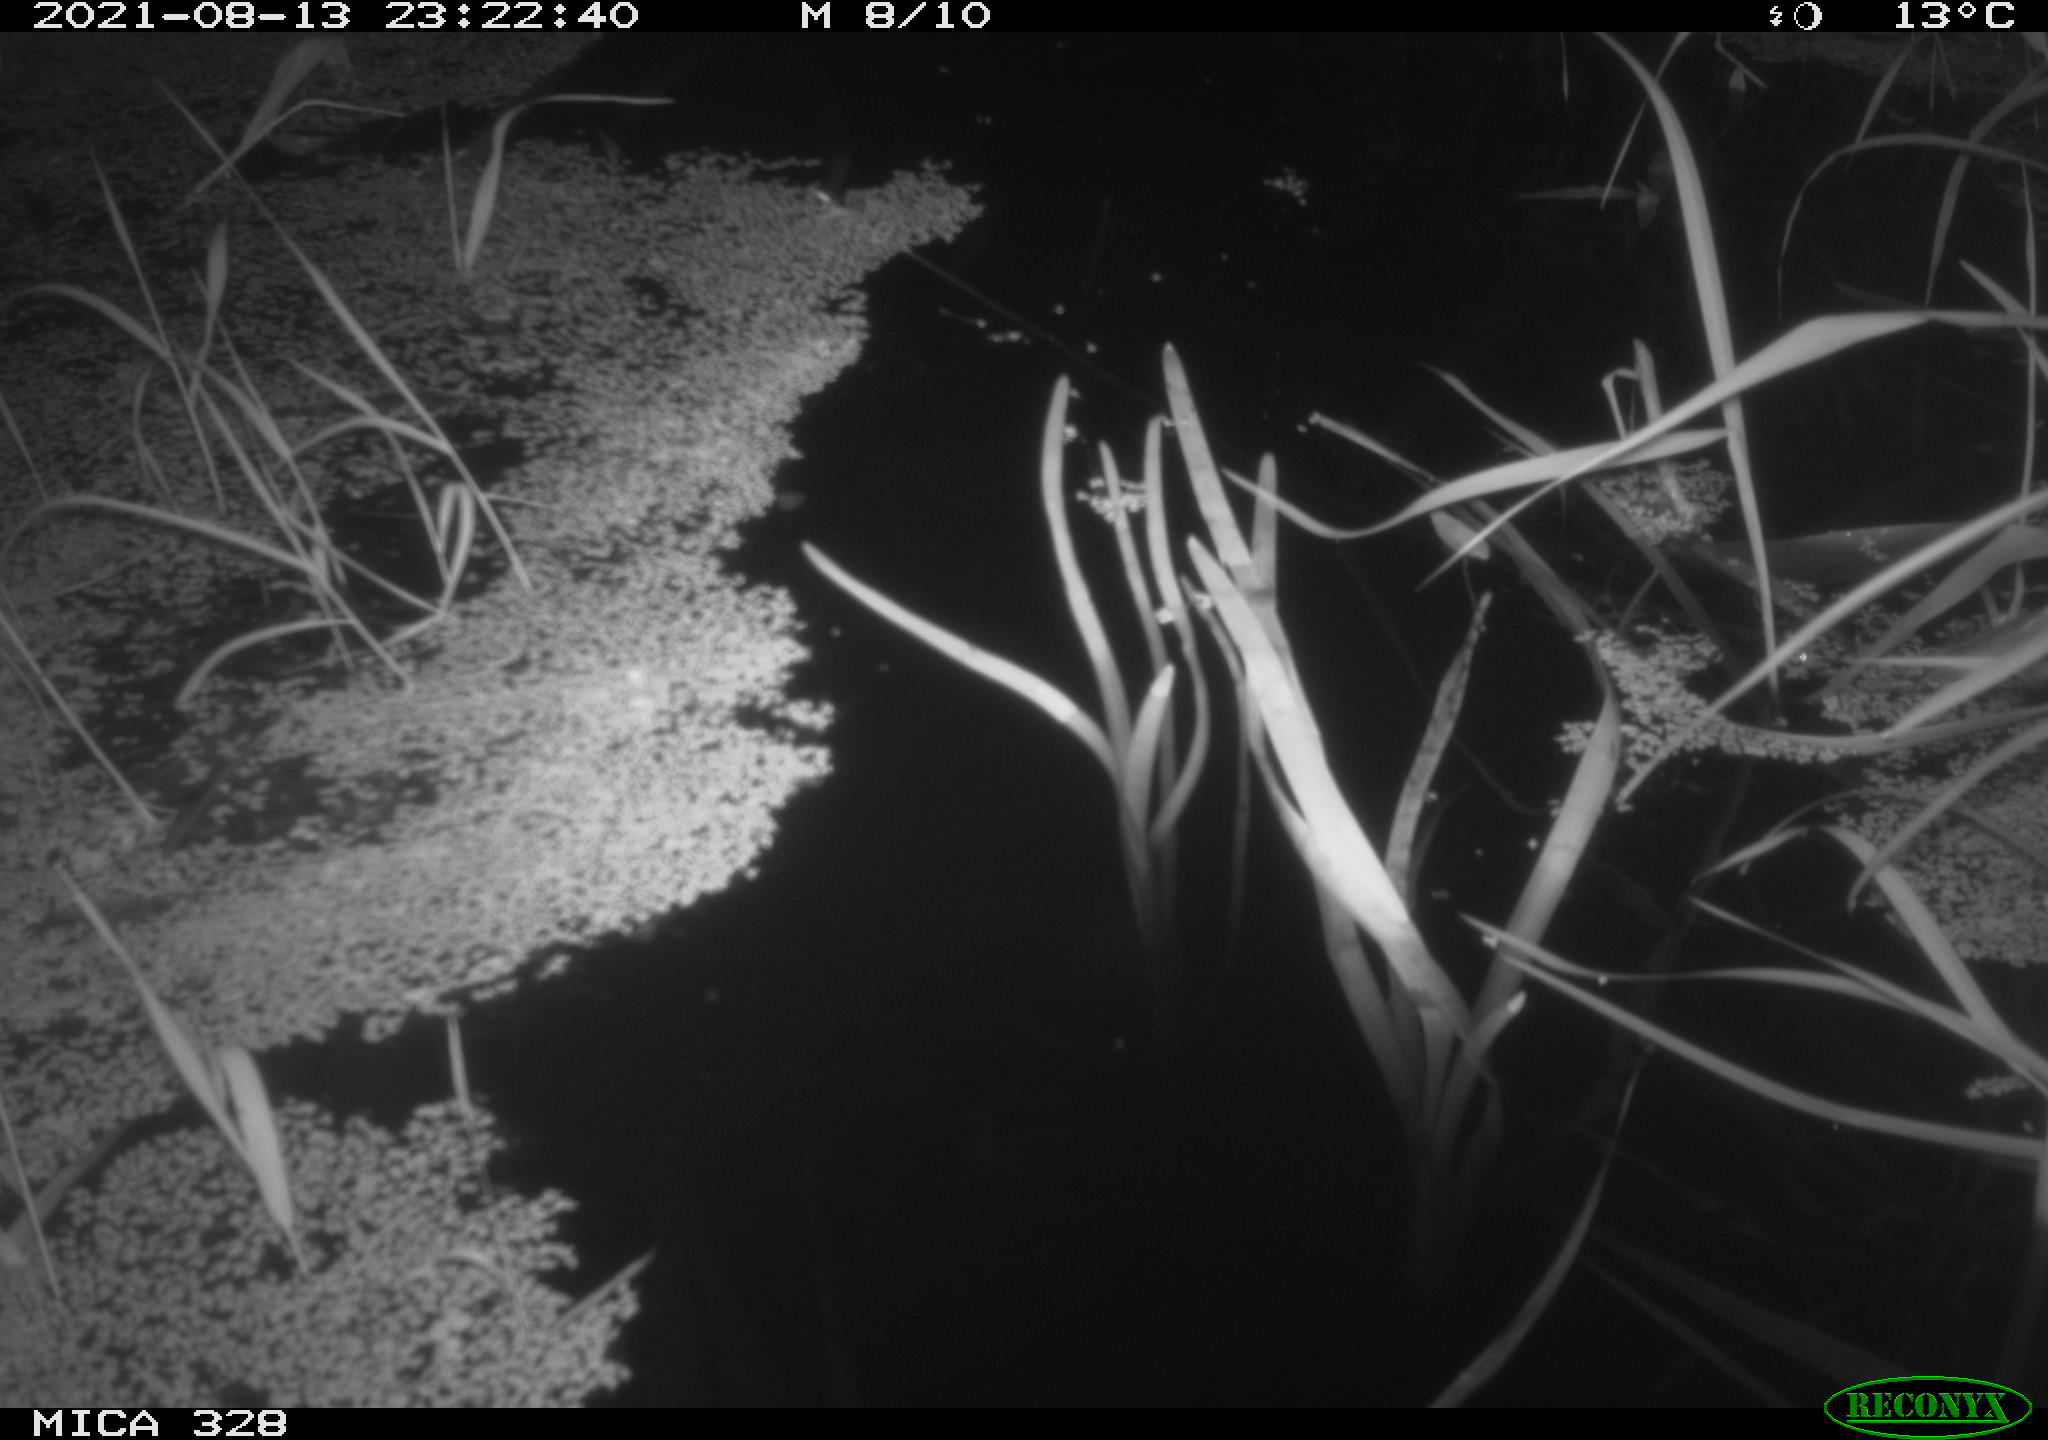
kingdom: Animalia
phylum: Chordata
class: Mammalia
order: Rodentia
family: Cricetidae
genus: Ondatra
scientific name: Ondatra zibethicus
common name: Muskrat
